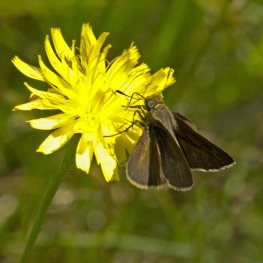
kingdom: Animalia
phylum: Arthropoda
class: Insecta
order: Lepidoptera
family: Hesperiidae
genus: Euphyes
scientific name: Euphyes vestris
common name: Dun Skipper
